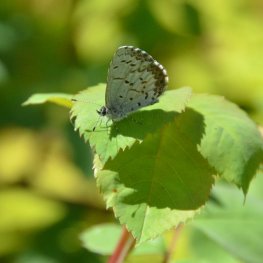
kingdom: Animalia
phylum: Arthropoda
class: Insecta
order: Lepidoptera
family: Lycaenidae
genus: Celastrina
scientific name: Celastrina lucia
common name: Northern Spring Azure
